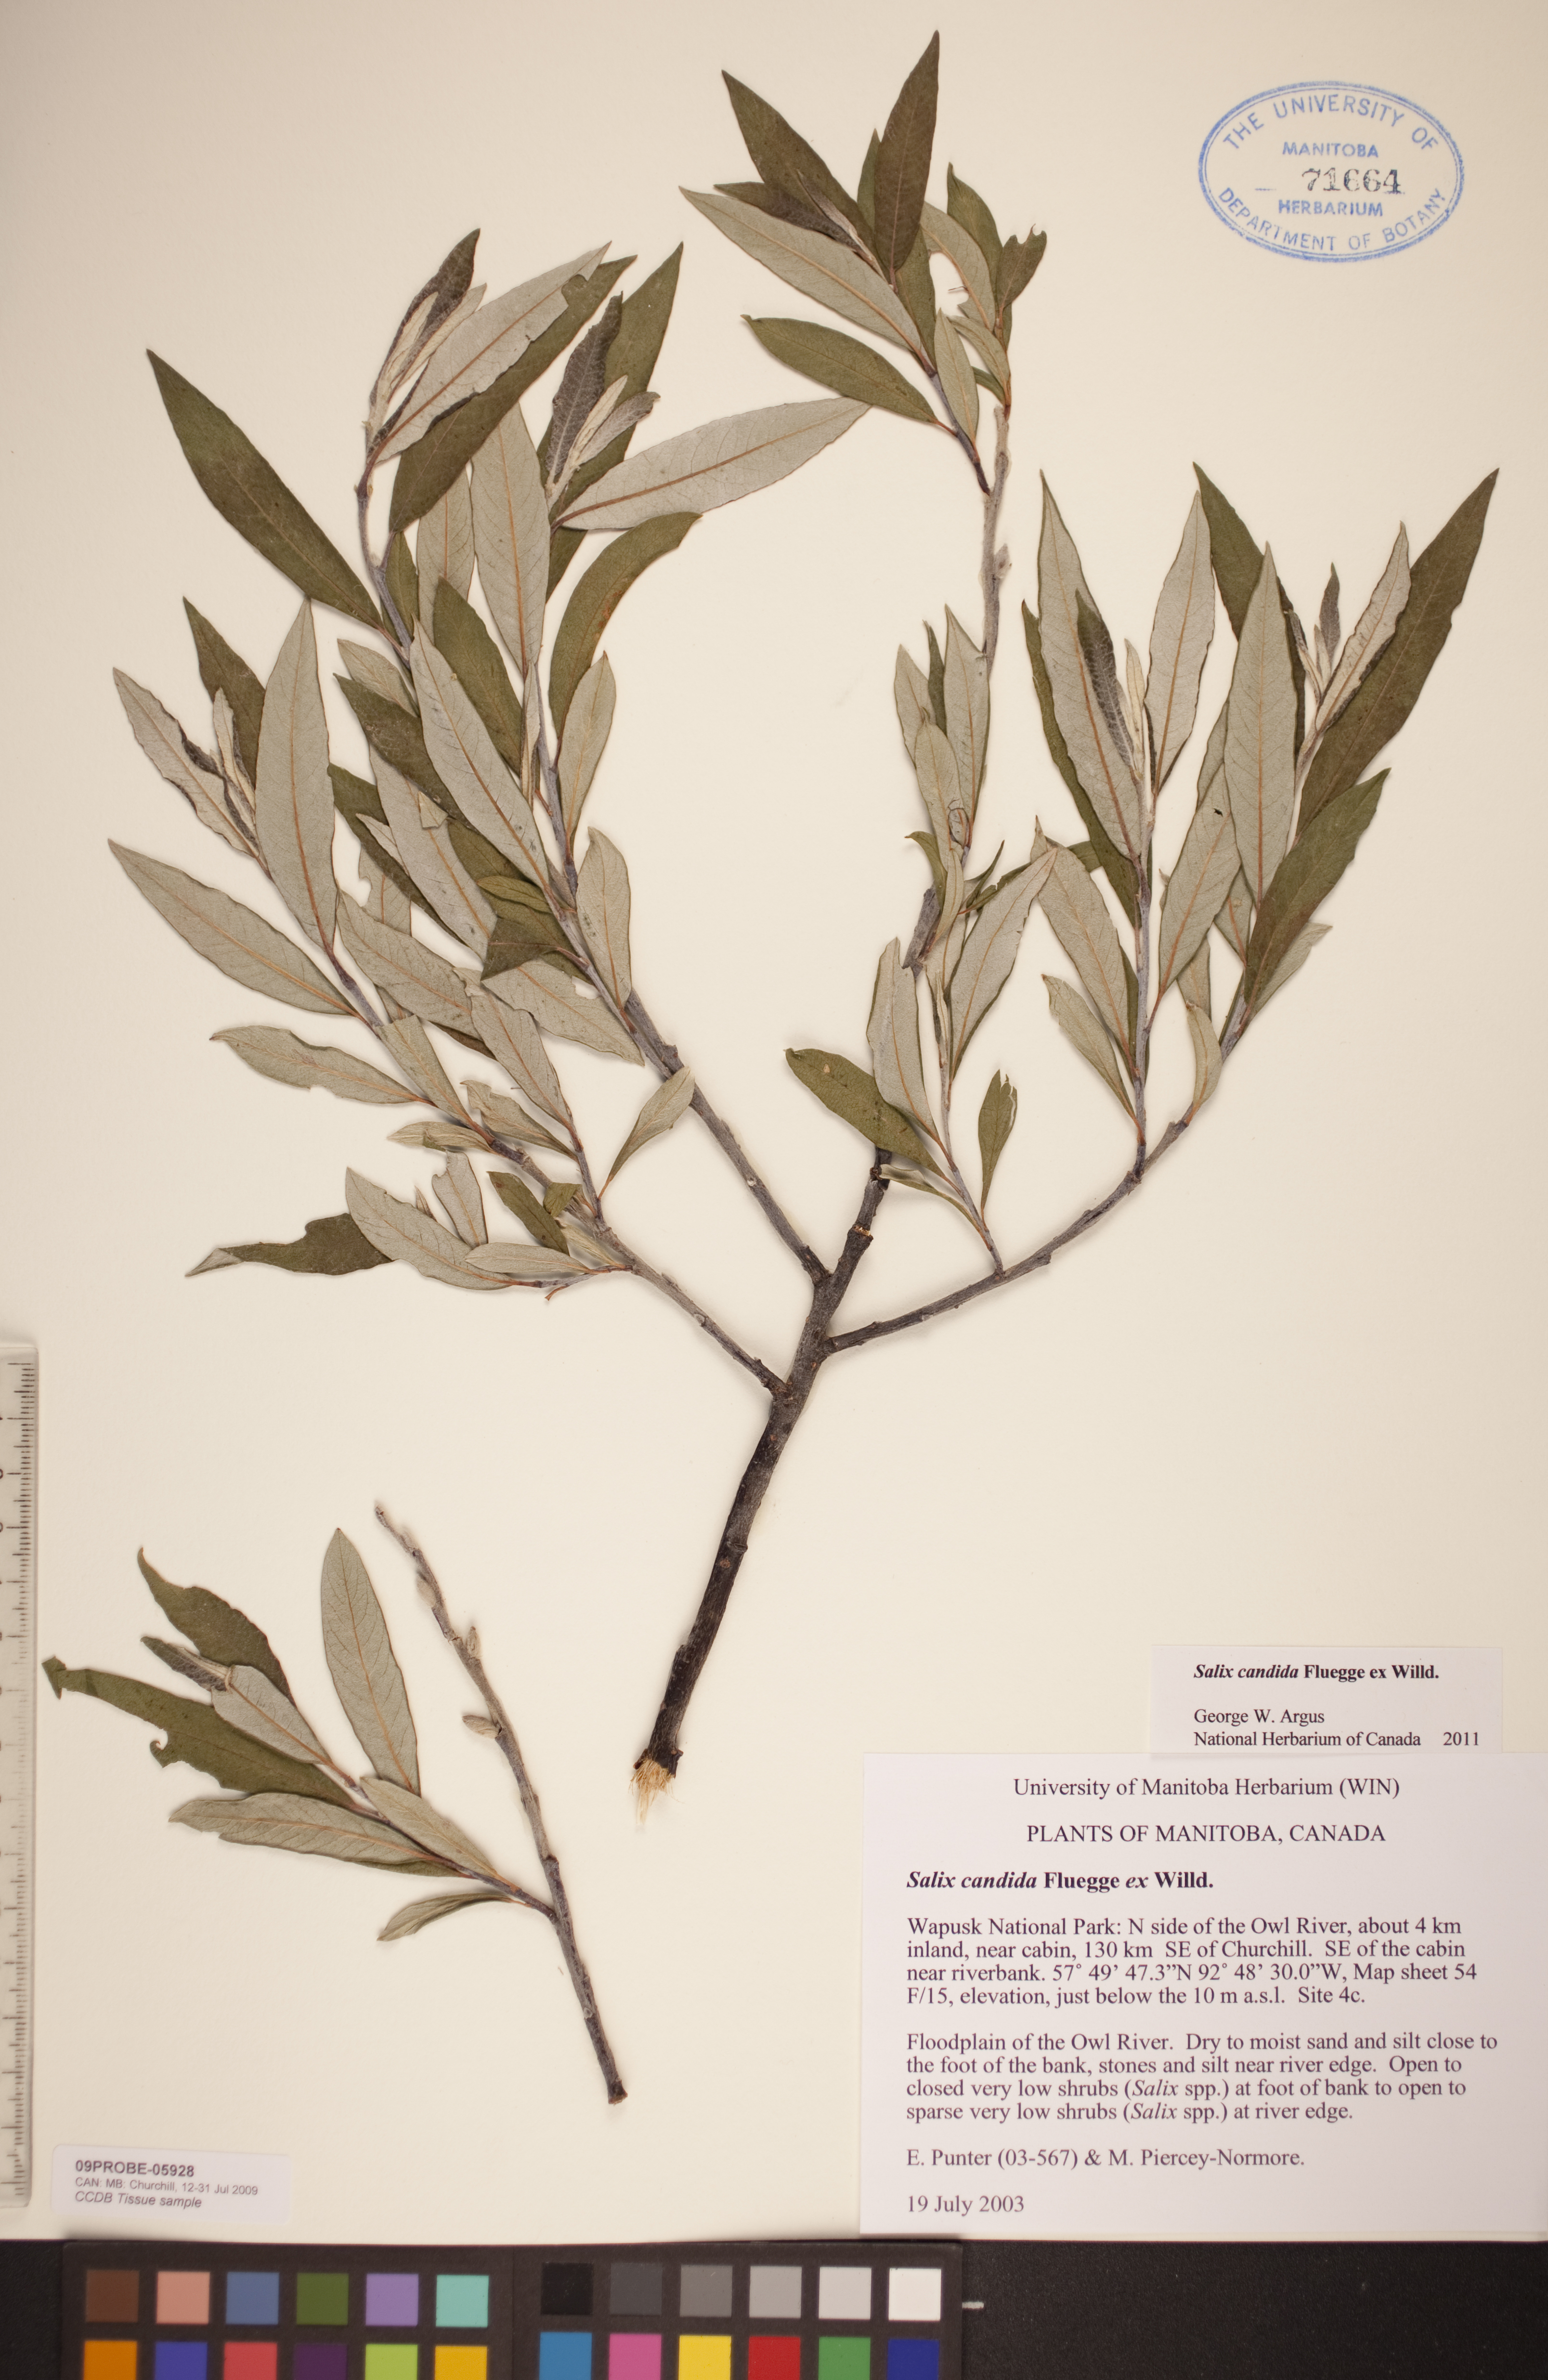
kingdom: Plantae
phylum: Tracheophyta
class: Magnoliopsida
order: Malpighiales
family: Salicaceae
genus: Salix
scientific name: Salix candida
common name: Hoary willow
